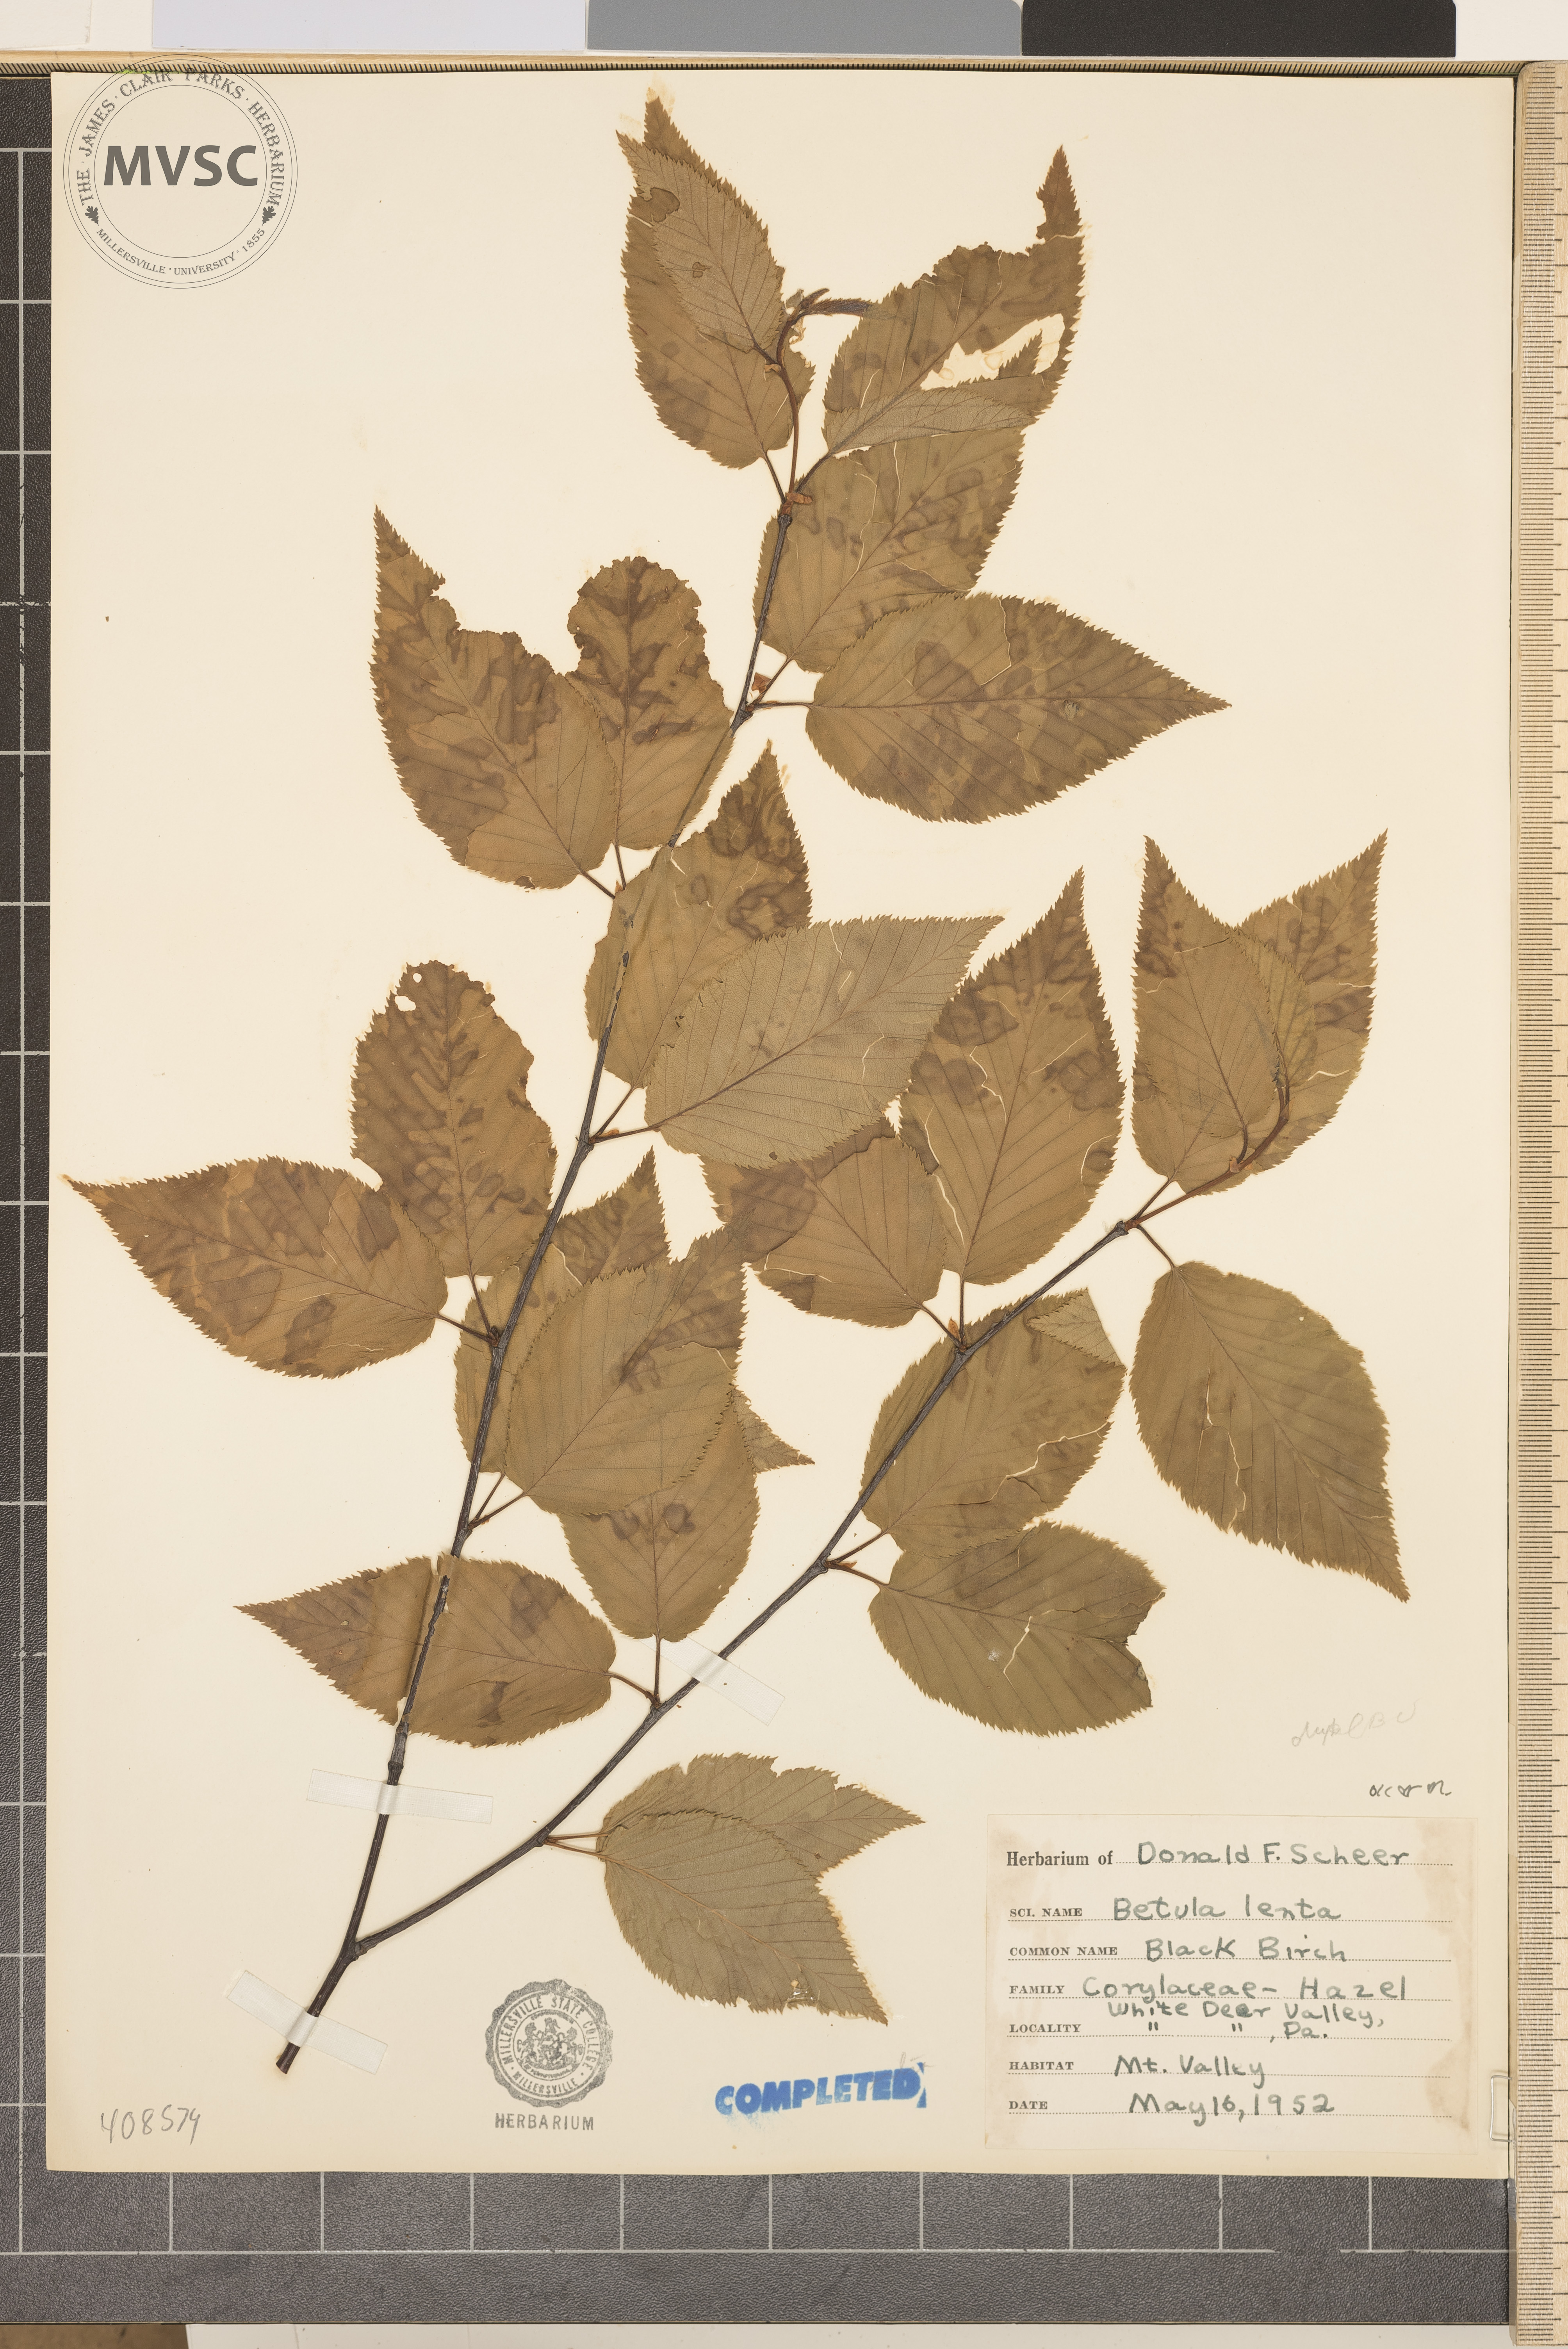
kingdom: Plantae
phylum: Tracheophyta
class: Magnoliopsida
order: Fagales
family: Betulaceae
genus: Betula
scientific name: Betula lenta
